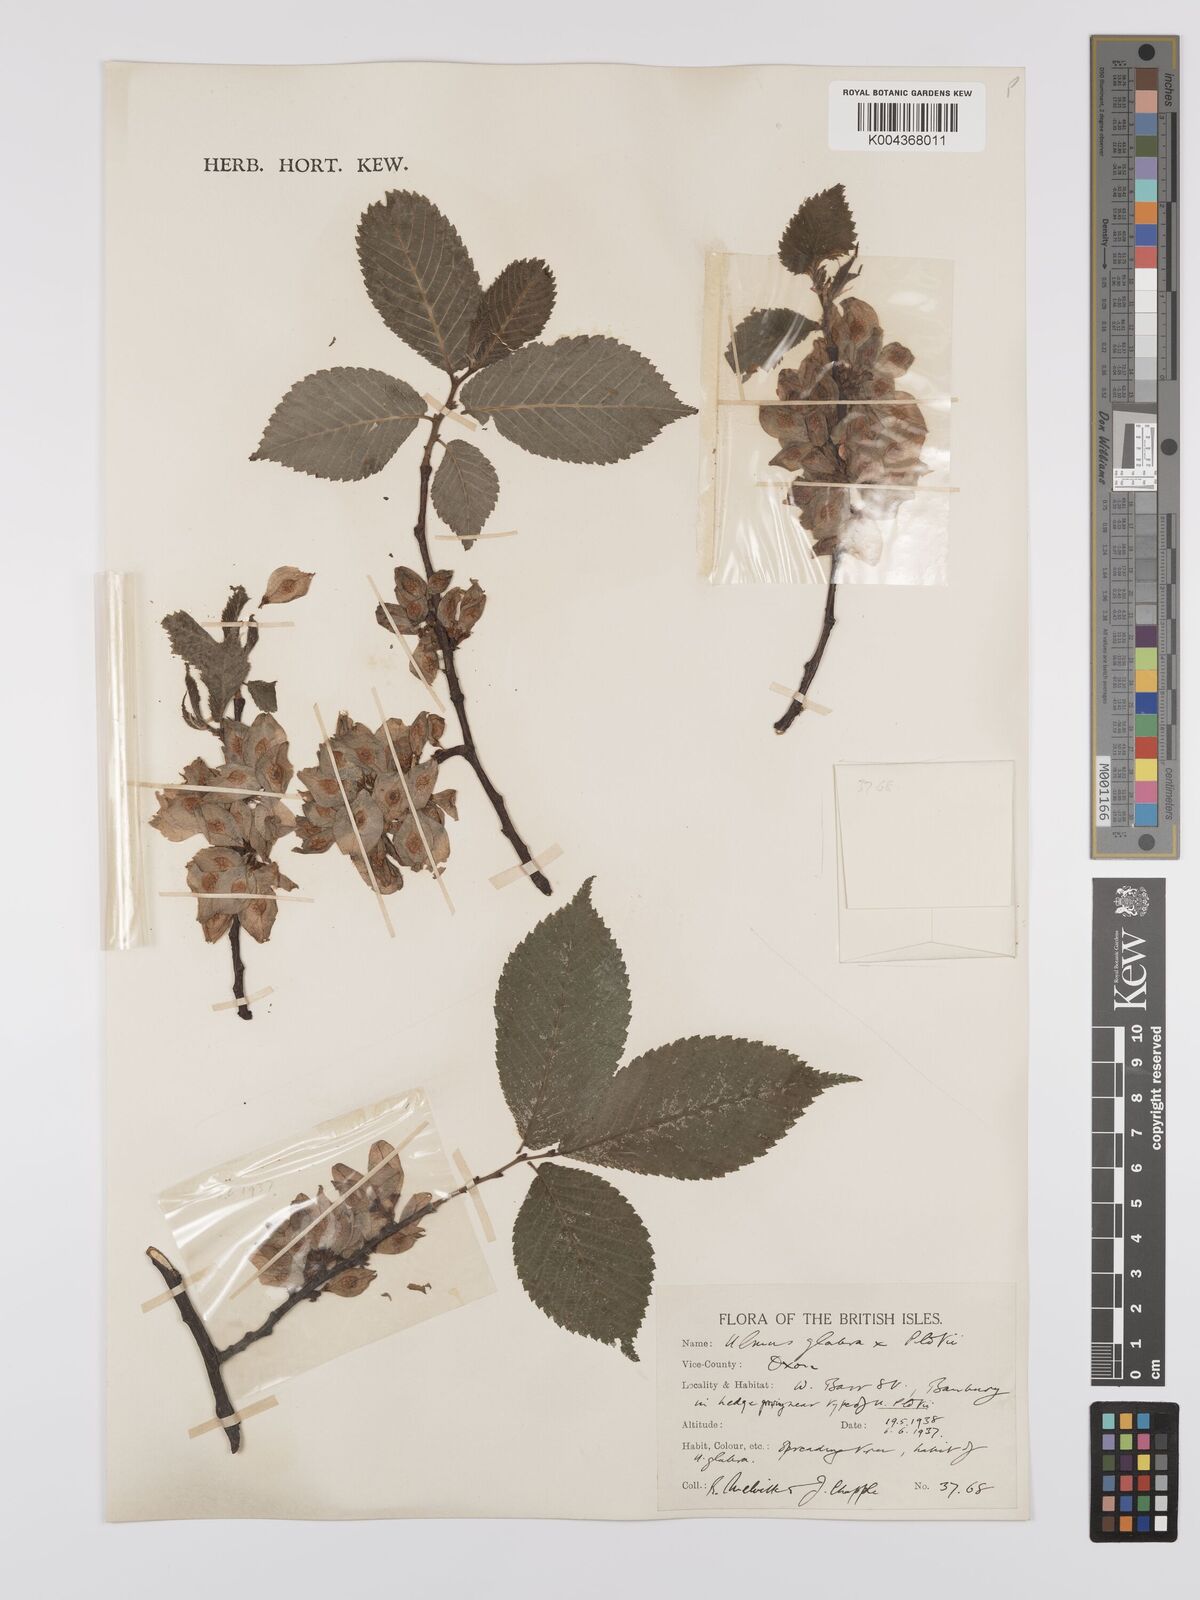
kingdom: Plantae
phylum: Tracheophyta
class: Magnoliopsida
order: Rosales
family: Ulmaceae
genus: Ulmus
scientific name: Ulmus
